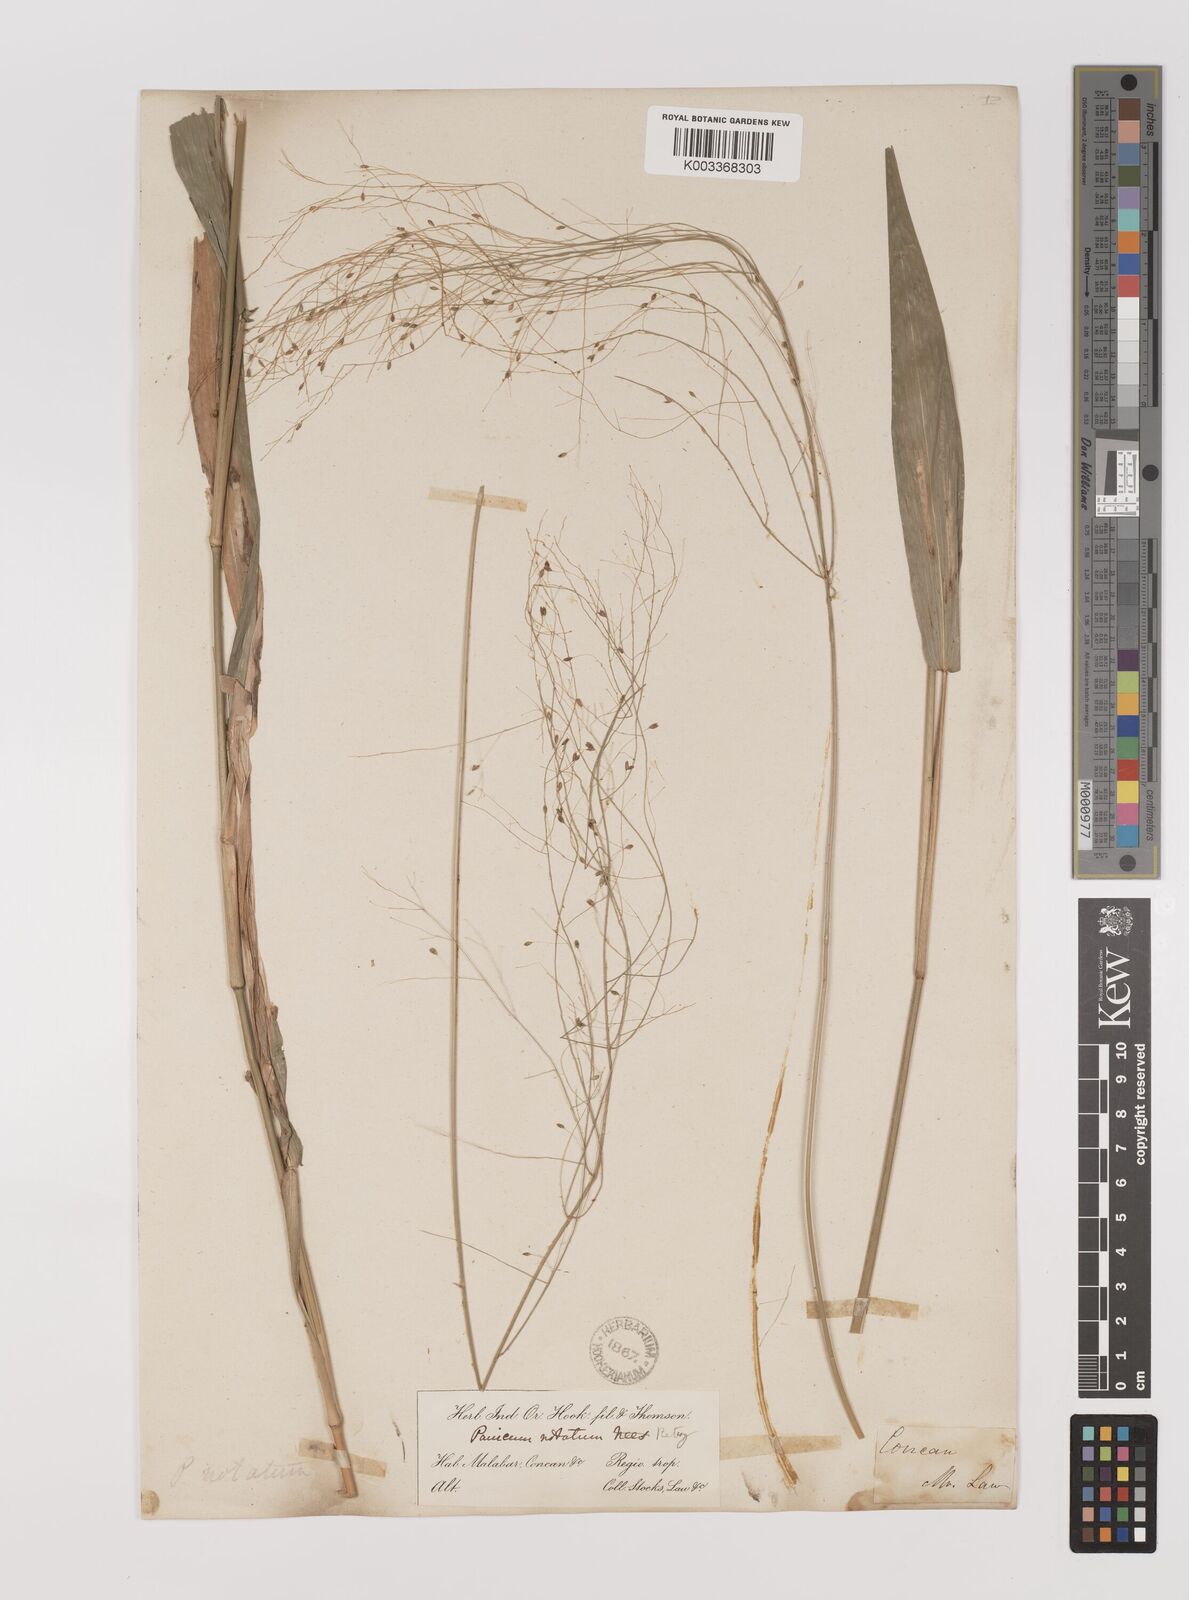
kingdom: Plantae
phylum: Tracheophyta
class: Liliopsida
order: Poales
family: Poaceae
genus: Panicum
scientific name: Panicum notatum
